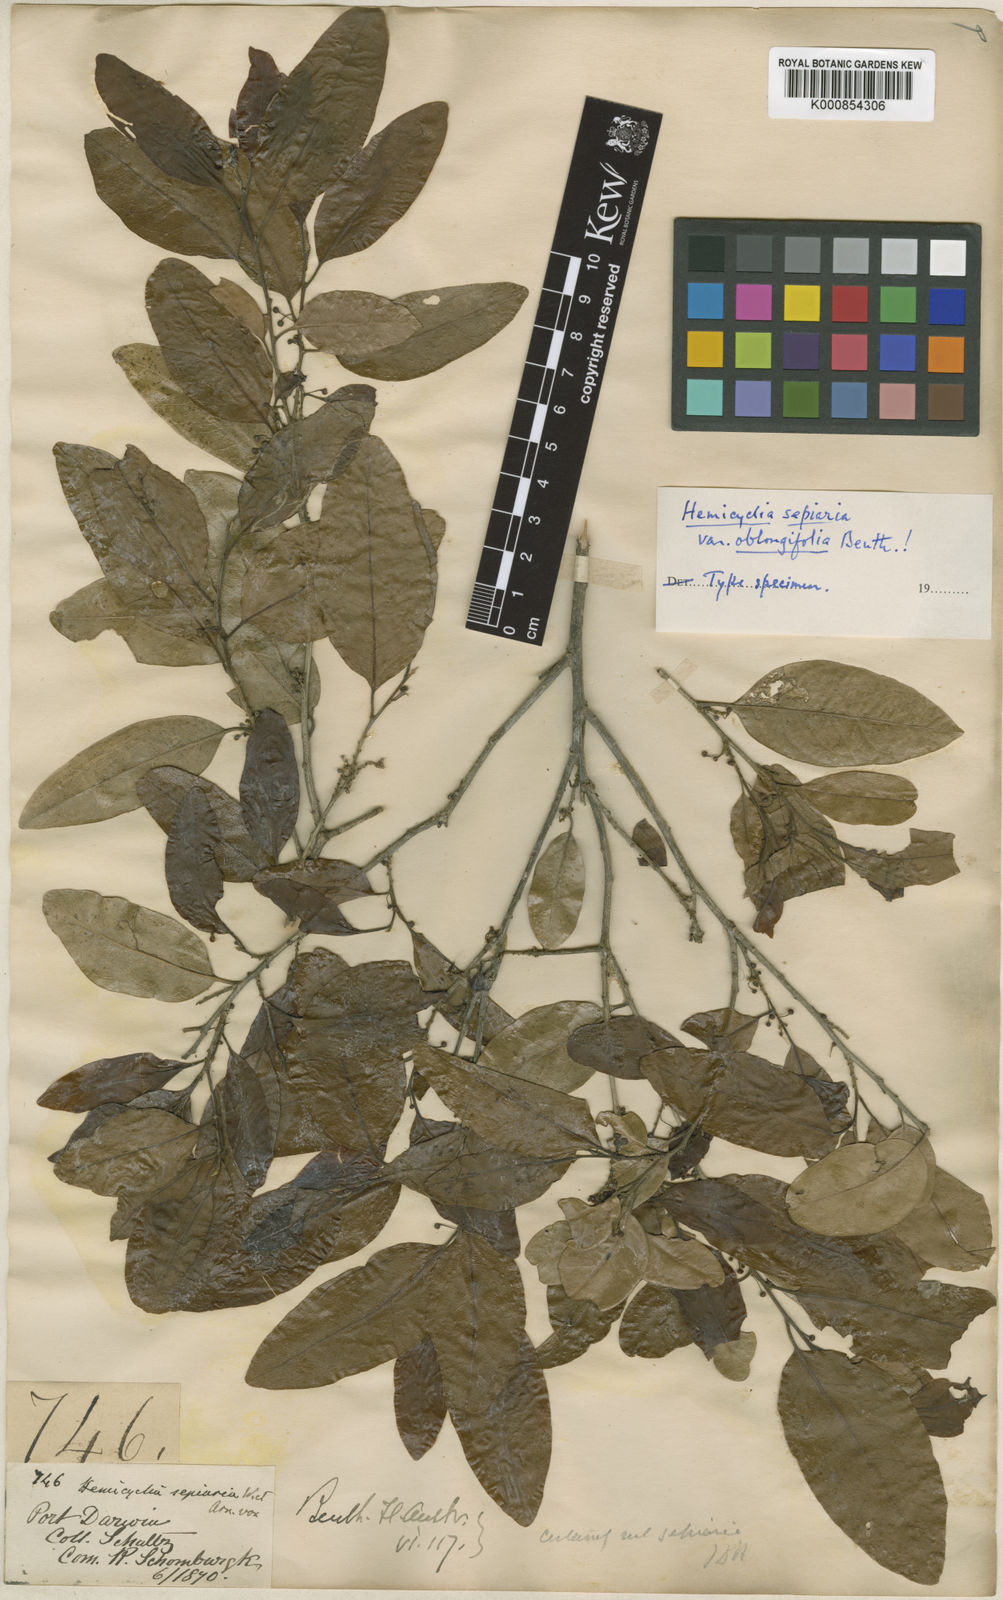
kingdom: Plantae
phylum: Tracheophyta
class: Magnoliopsida
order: Malpighiales
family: Putranjivaceae
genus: Drypetes
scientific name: Drypetes deplanchei
